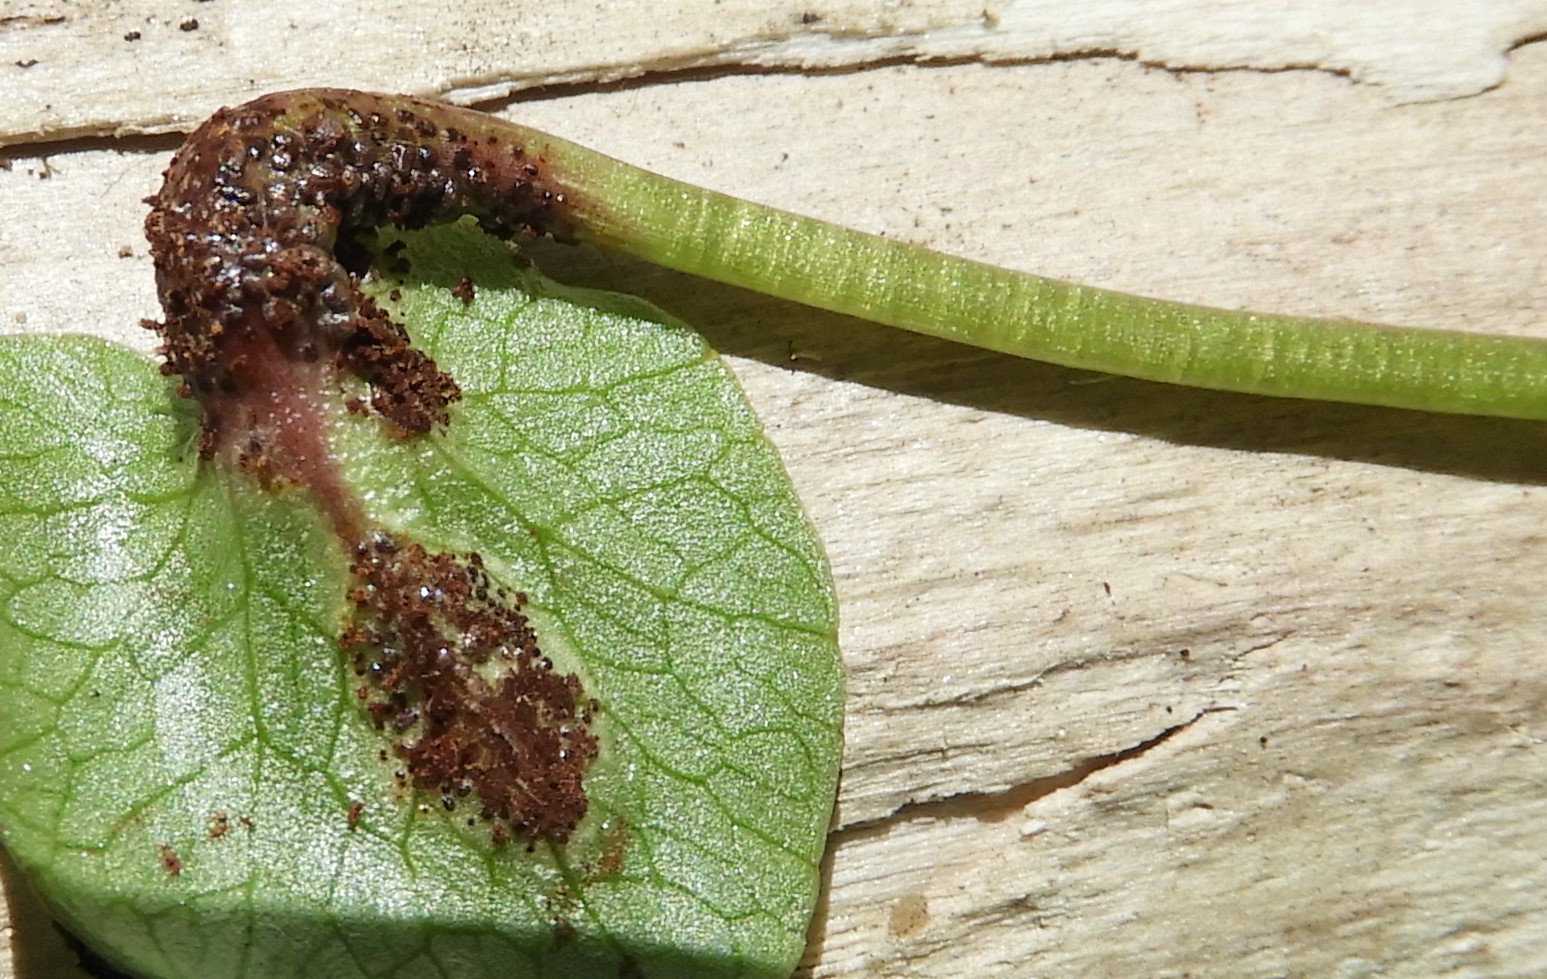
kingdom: Fungi
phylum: Basidiomycota
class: Pucciniomycetes
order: Pucciniales
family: Pucciniaceae
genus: Uromyces
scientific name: Uromyces ficariae
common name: vorterod-encellerust
